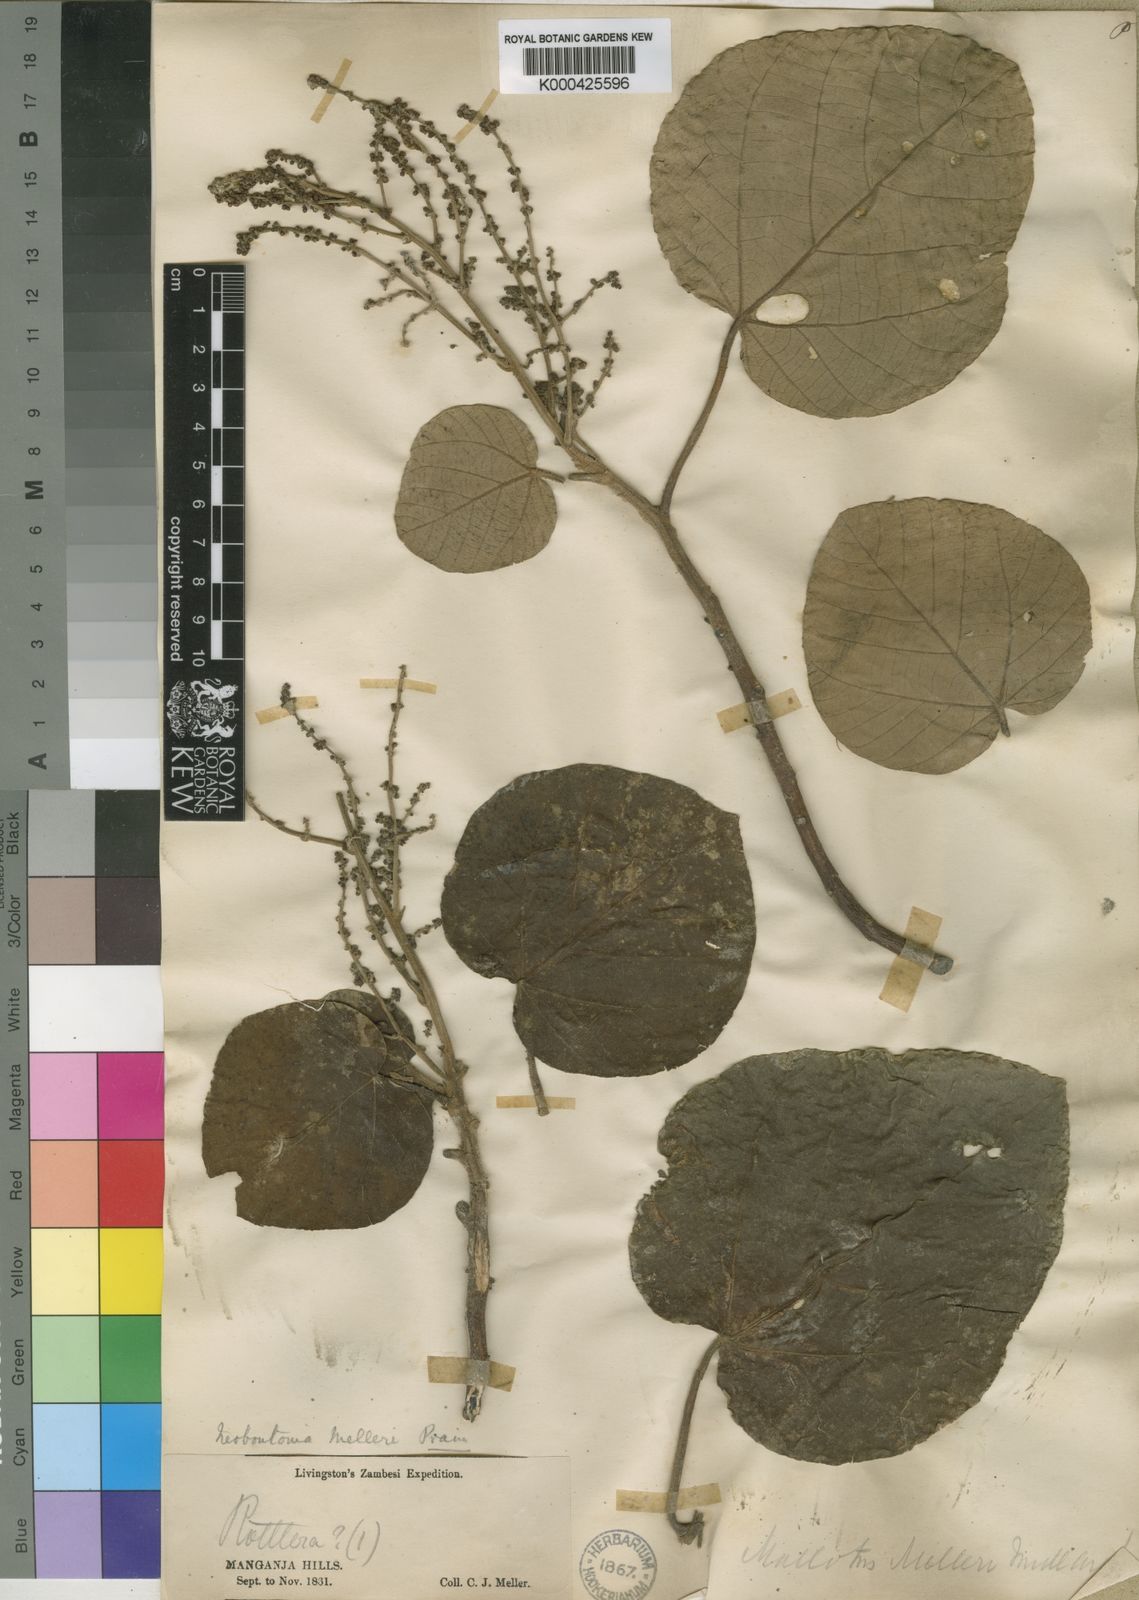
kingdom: Plantae
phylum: Tracheophyta
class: Magnoliopsida
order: Malpighiales
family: Euphorbiaceae
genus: Neoboutonia
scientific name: Neoboutonia
